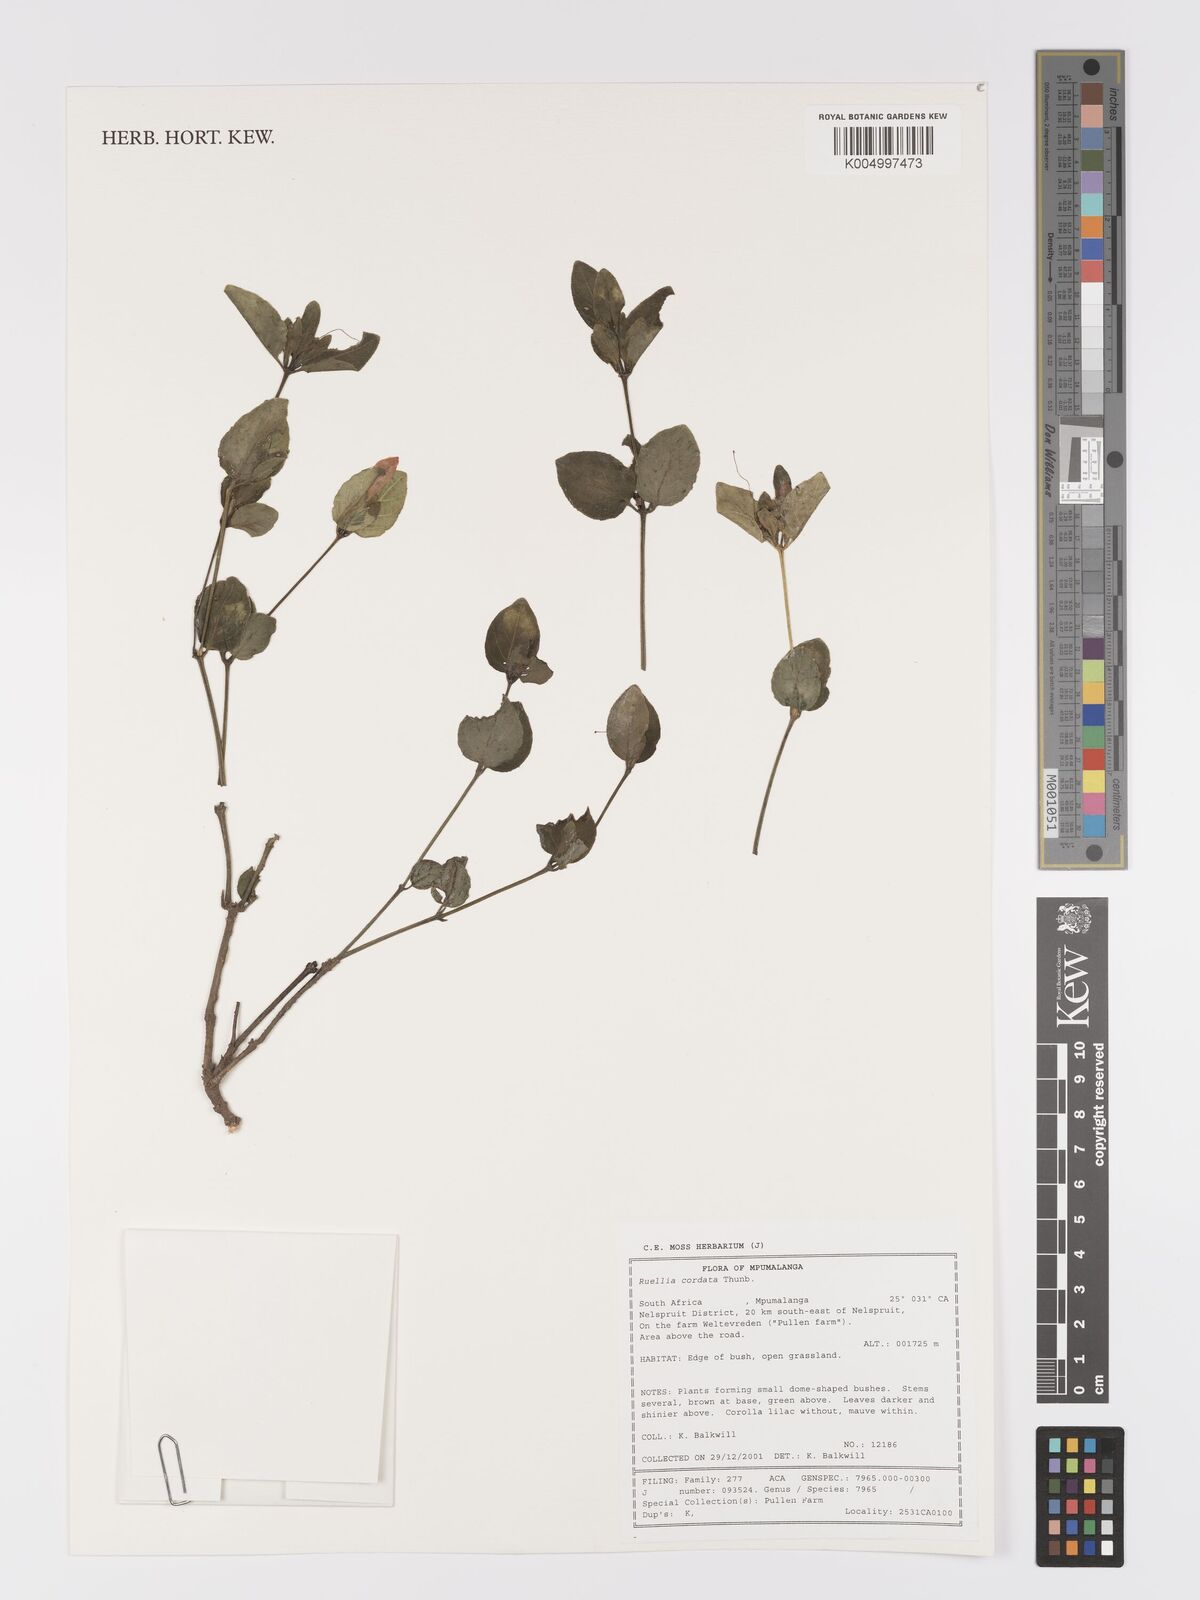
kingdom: Plantae
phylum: Tracheophyta
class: Magnoliopsida
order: Lamiales
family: Acanthaceae
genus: Ruellia
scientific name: Ruellia cordata
